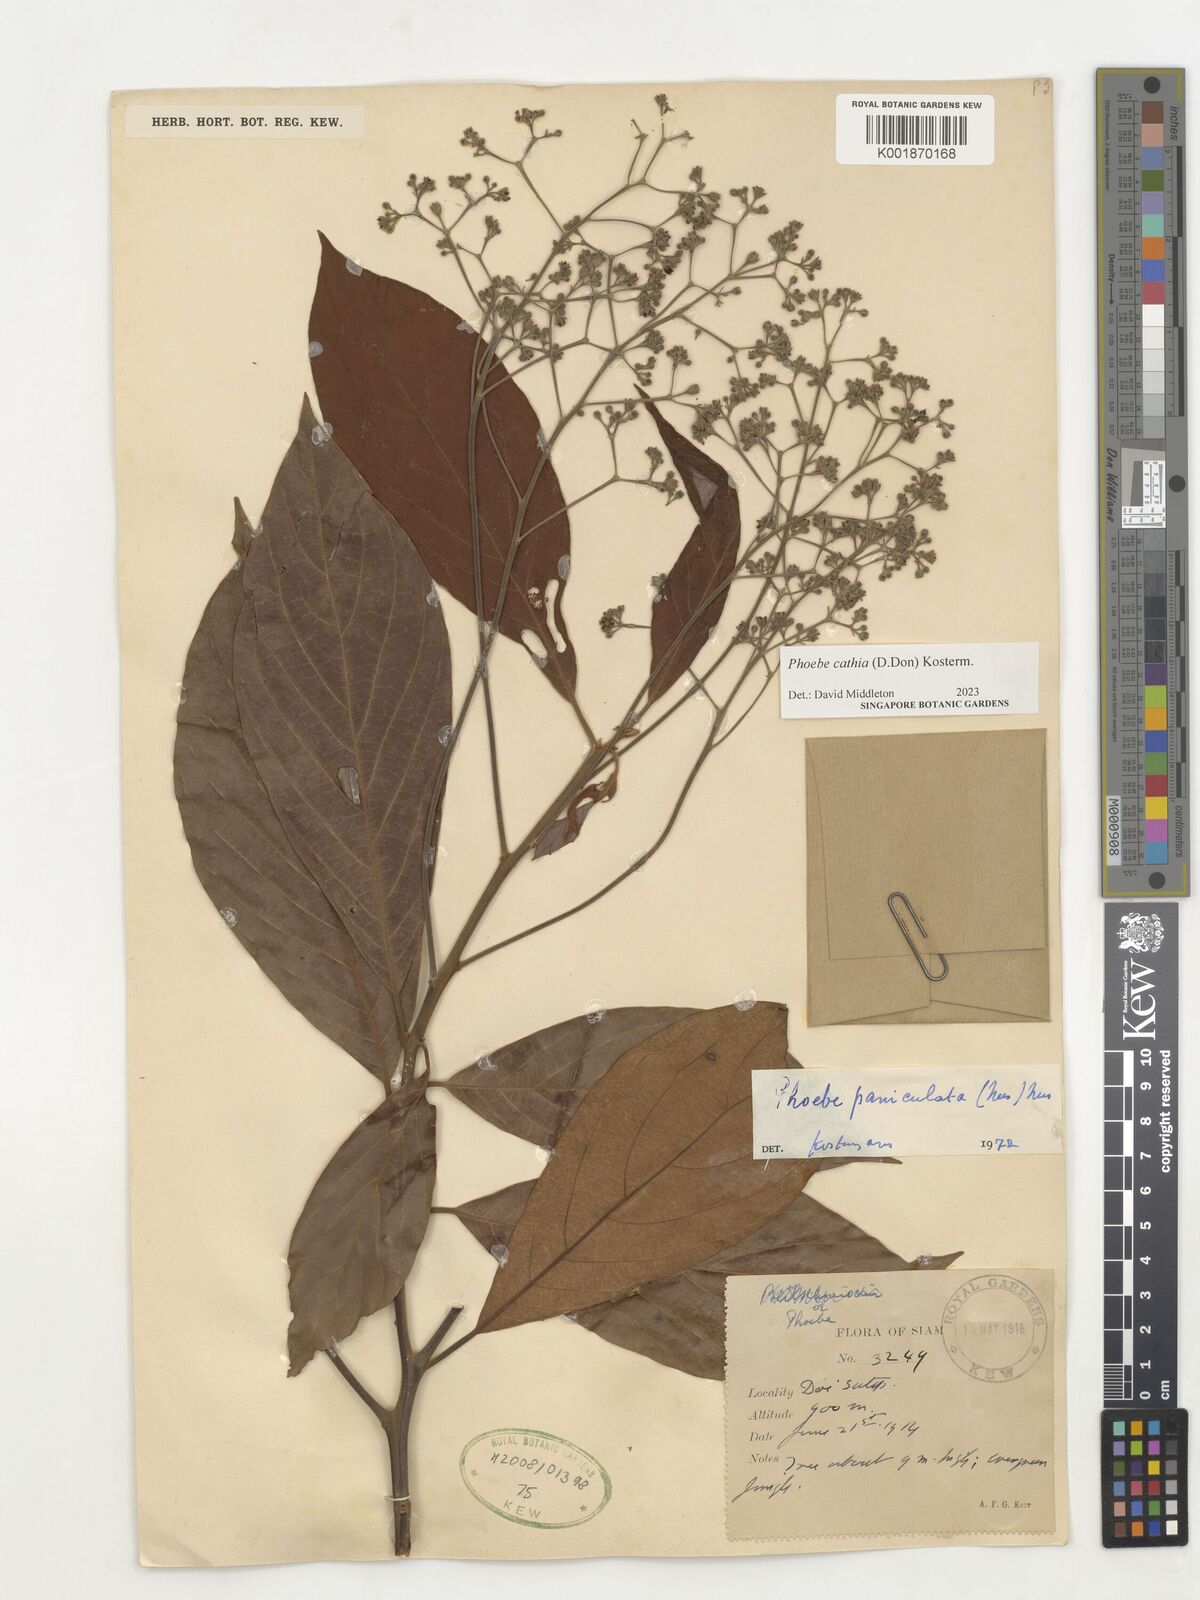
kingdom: Plantae
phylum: Tracheophyta
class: Magnoliopsida
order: Laurales
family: Lauraceae
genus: Phoebe
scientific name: Phoebe cathia
